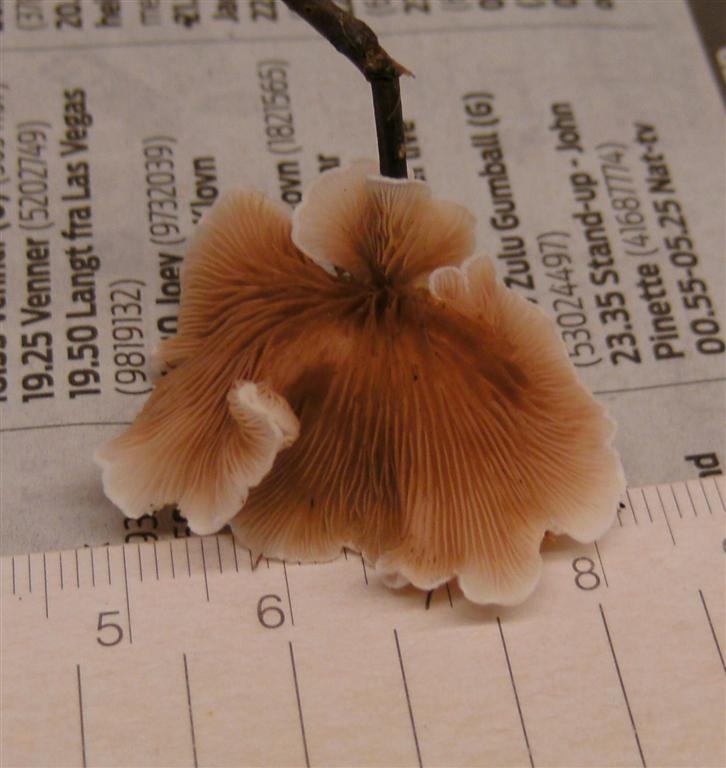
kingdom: Fungi
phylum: Basidiomycota
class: Agaricomycetes
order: Agaricales
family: Crepidotaceae
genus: Crepidotus
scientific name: Crepidotus variabilis
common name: forskelligformet muslingesvamp
